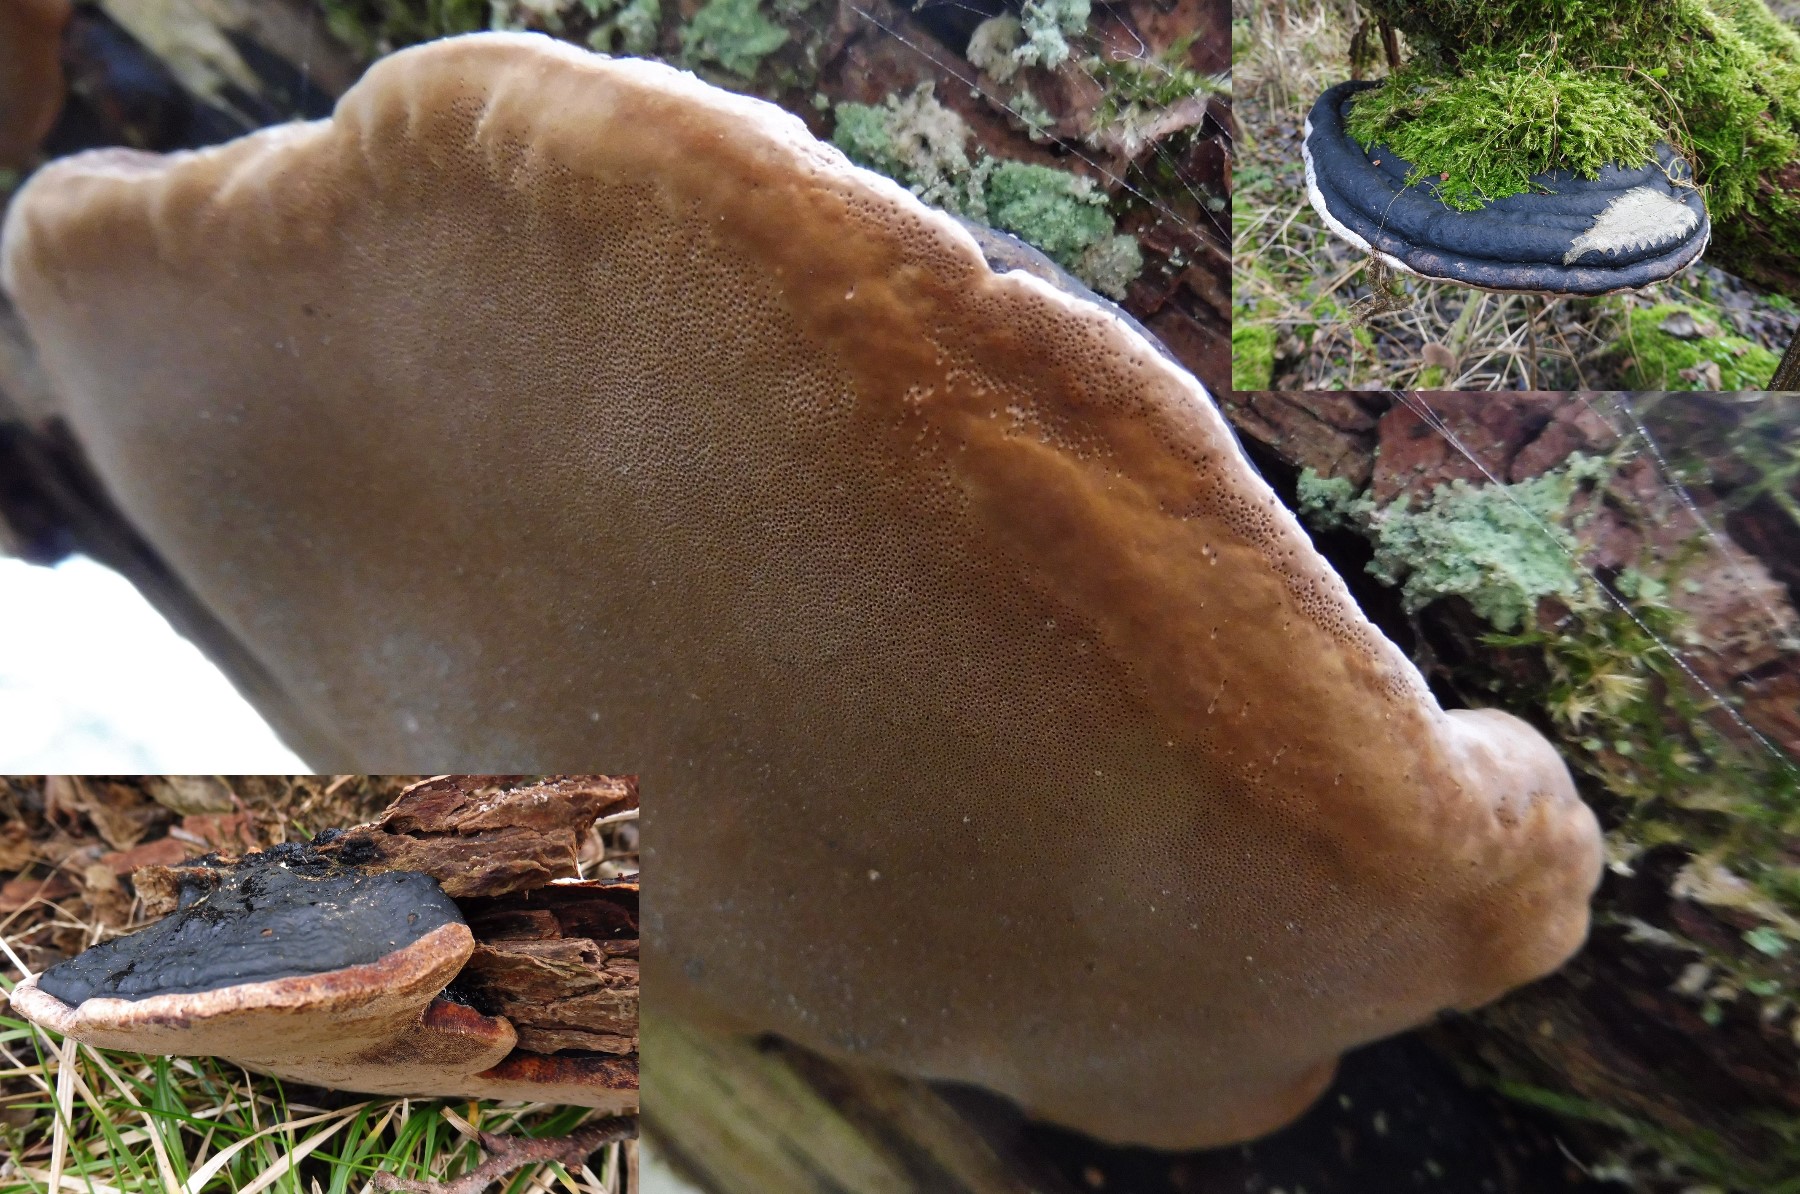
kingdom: Fungi
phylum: Basidiomycota
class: Agaricomycetes
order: Hymenochaetales
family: Hymenochaetaceae
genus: Phellinus
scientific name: Phellinus igniarius
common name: almindelig ildporesvamp
